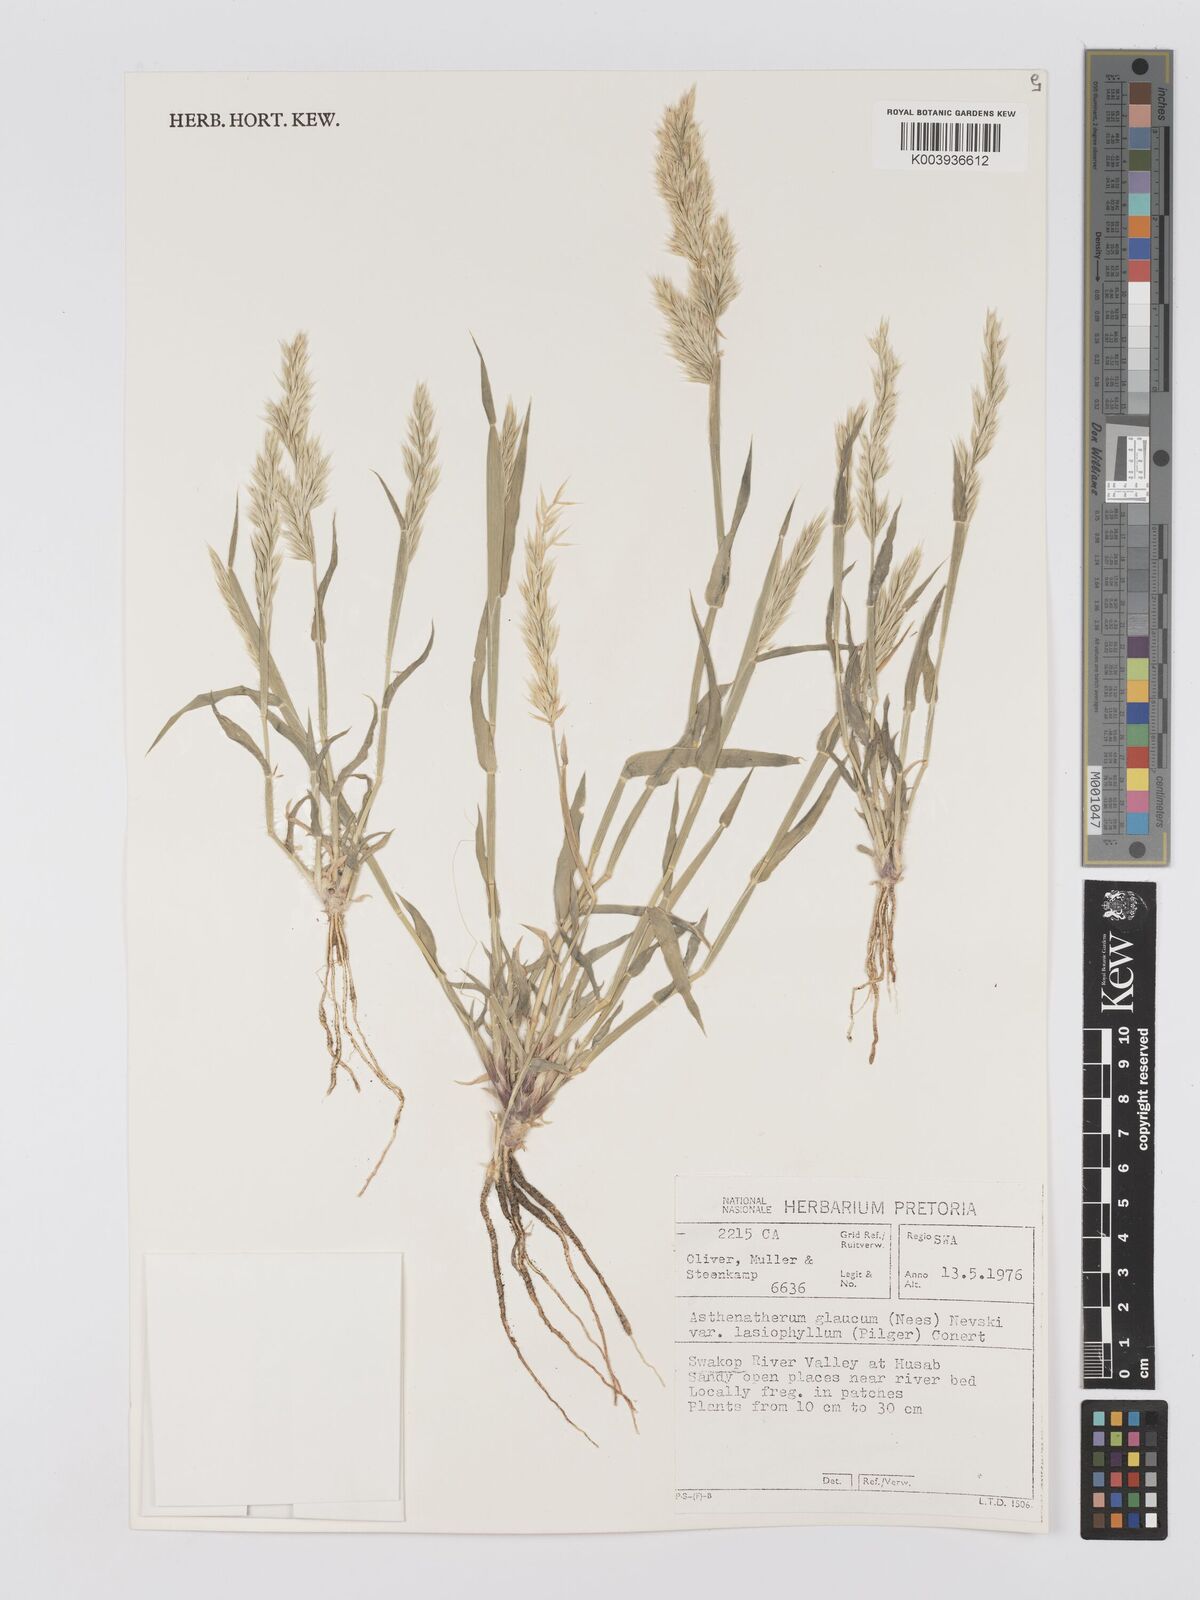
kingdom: Plantae
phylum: Tracheophyta
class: Liliopsida
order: Poales
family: Poaceae
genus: Centropodia
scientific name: Centropodia glauca
